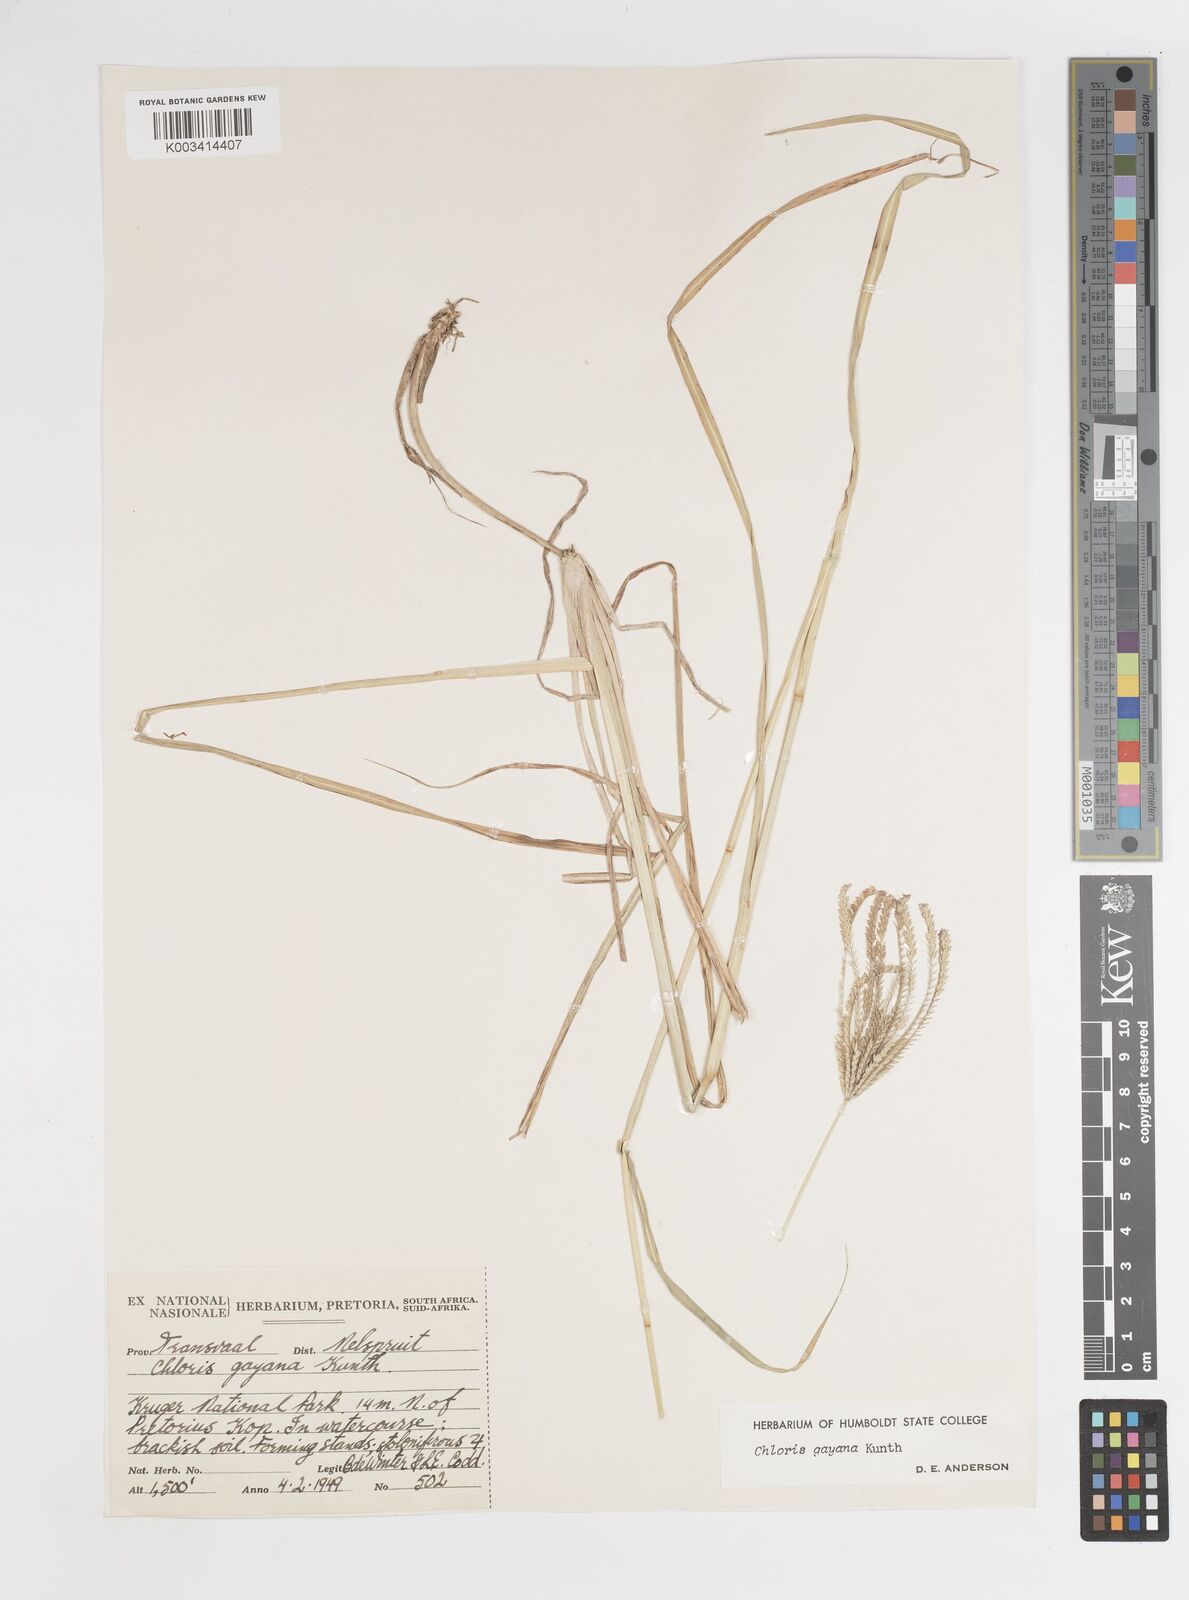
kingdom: Plantae
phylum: Tracheophyta
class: Liliopsida
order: Poales
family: Poaceae
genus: Chloris
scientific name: Chloris gayana
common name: Rhodes grass
